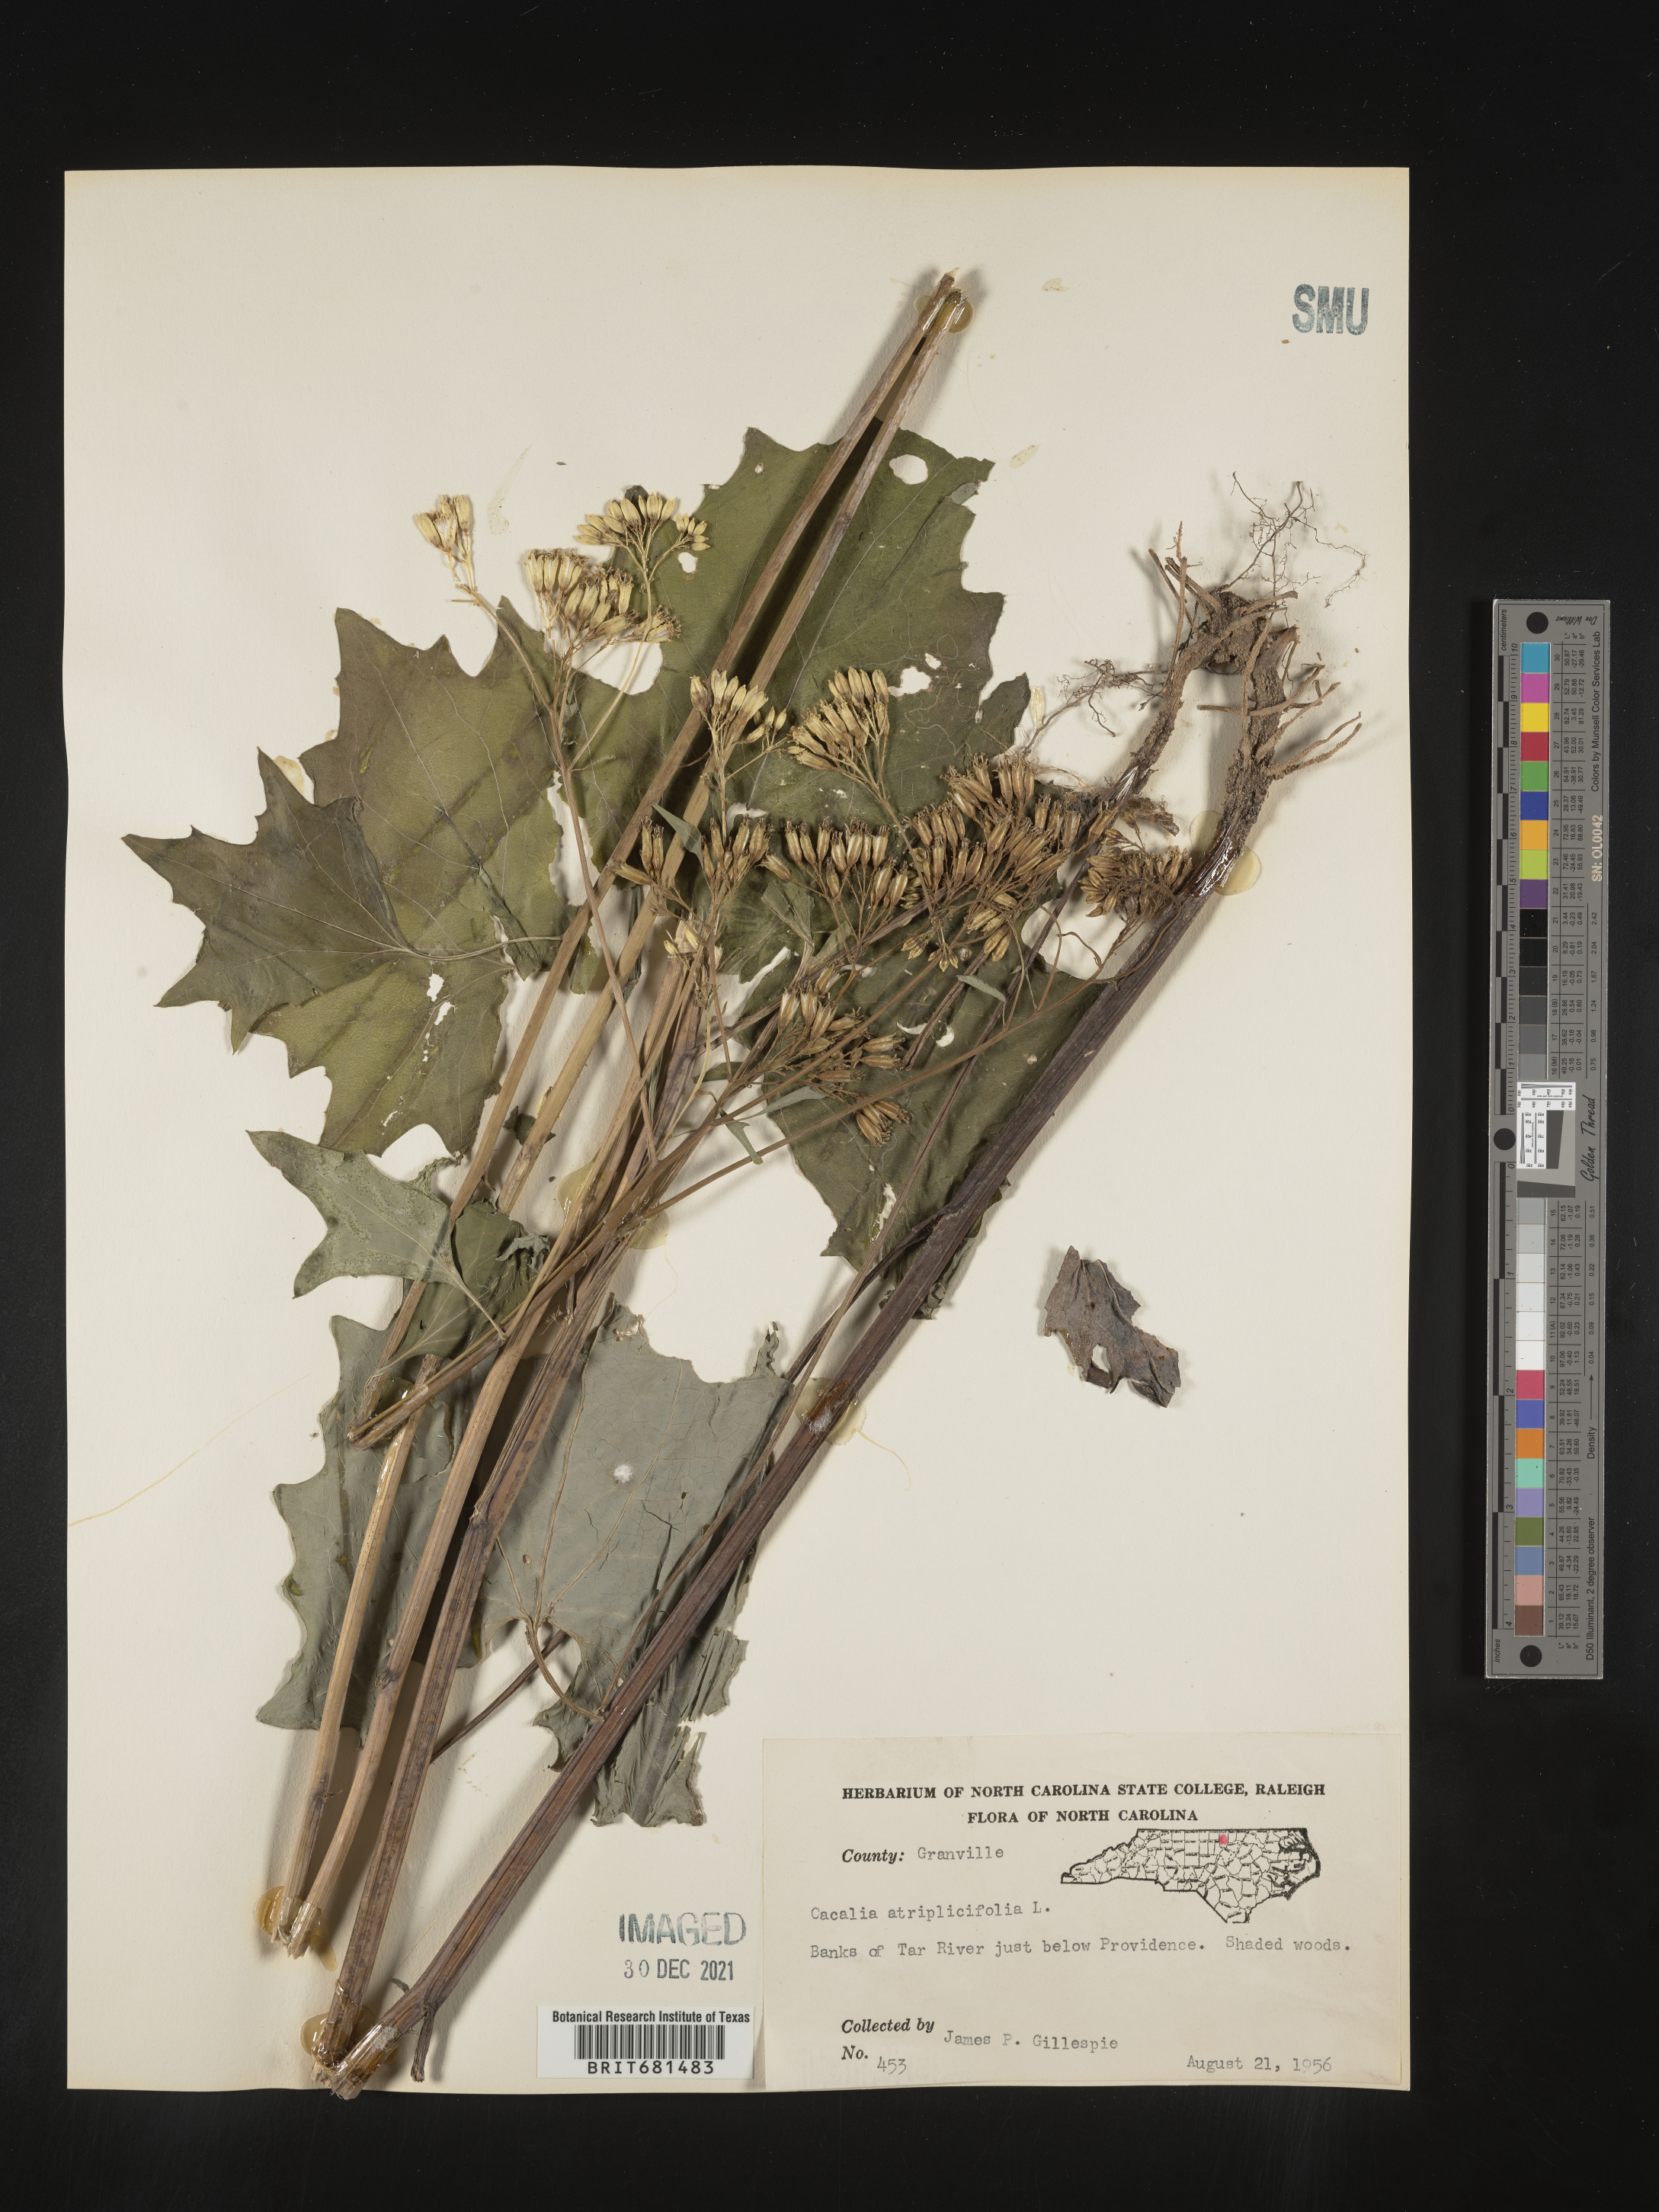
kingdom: Plantae
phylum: Tracheophyta
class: Magnoliopsida
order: Asterales
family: Asteraceae
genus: Arnoglossum
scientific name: Arnoglossum atriplicifolium
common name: Pale indian-plantain
